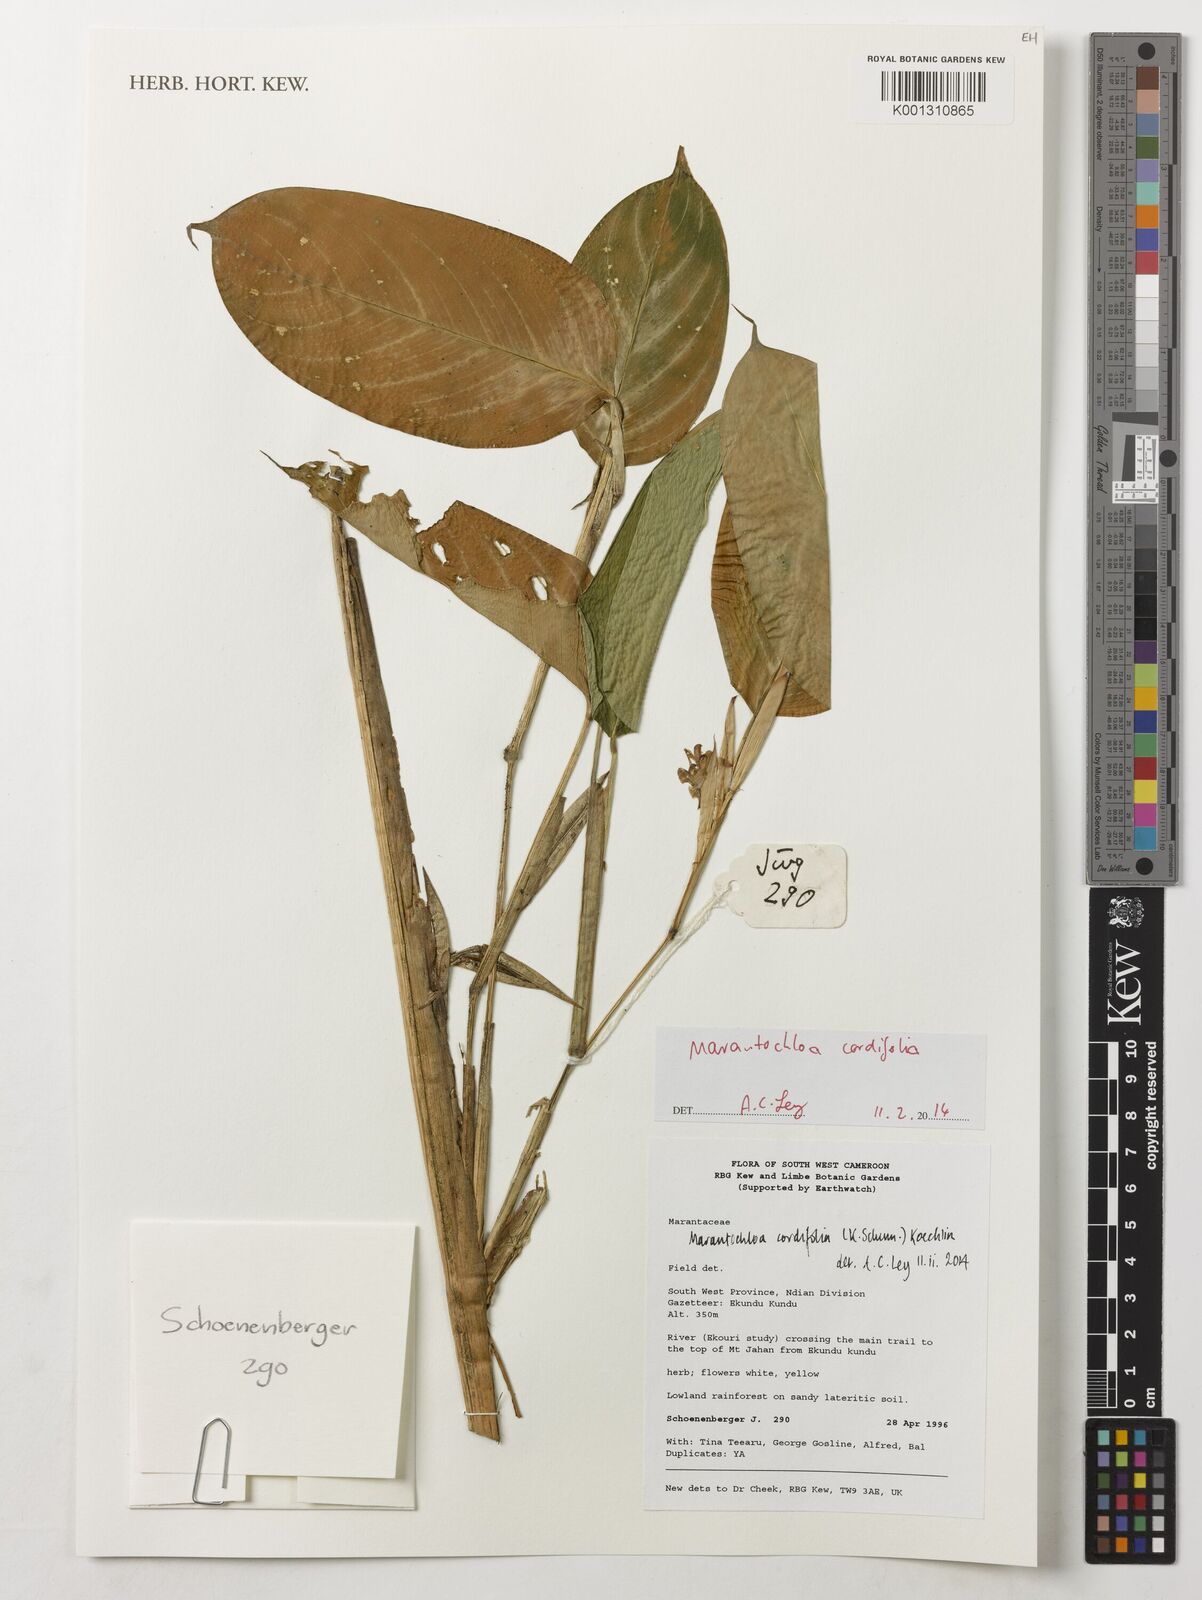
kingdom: Plantae
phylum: Tracheophyta
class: Liliopsida
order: Zingiberales
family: Marantaceae
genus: Marantochloa
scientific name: Marantochloa cordifolia
